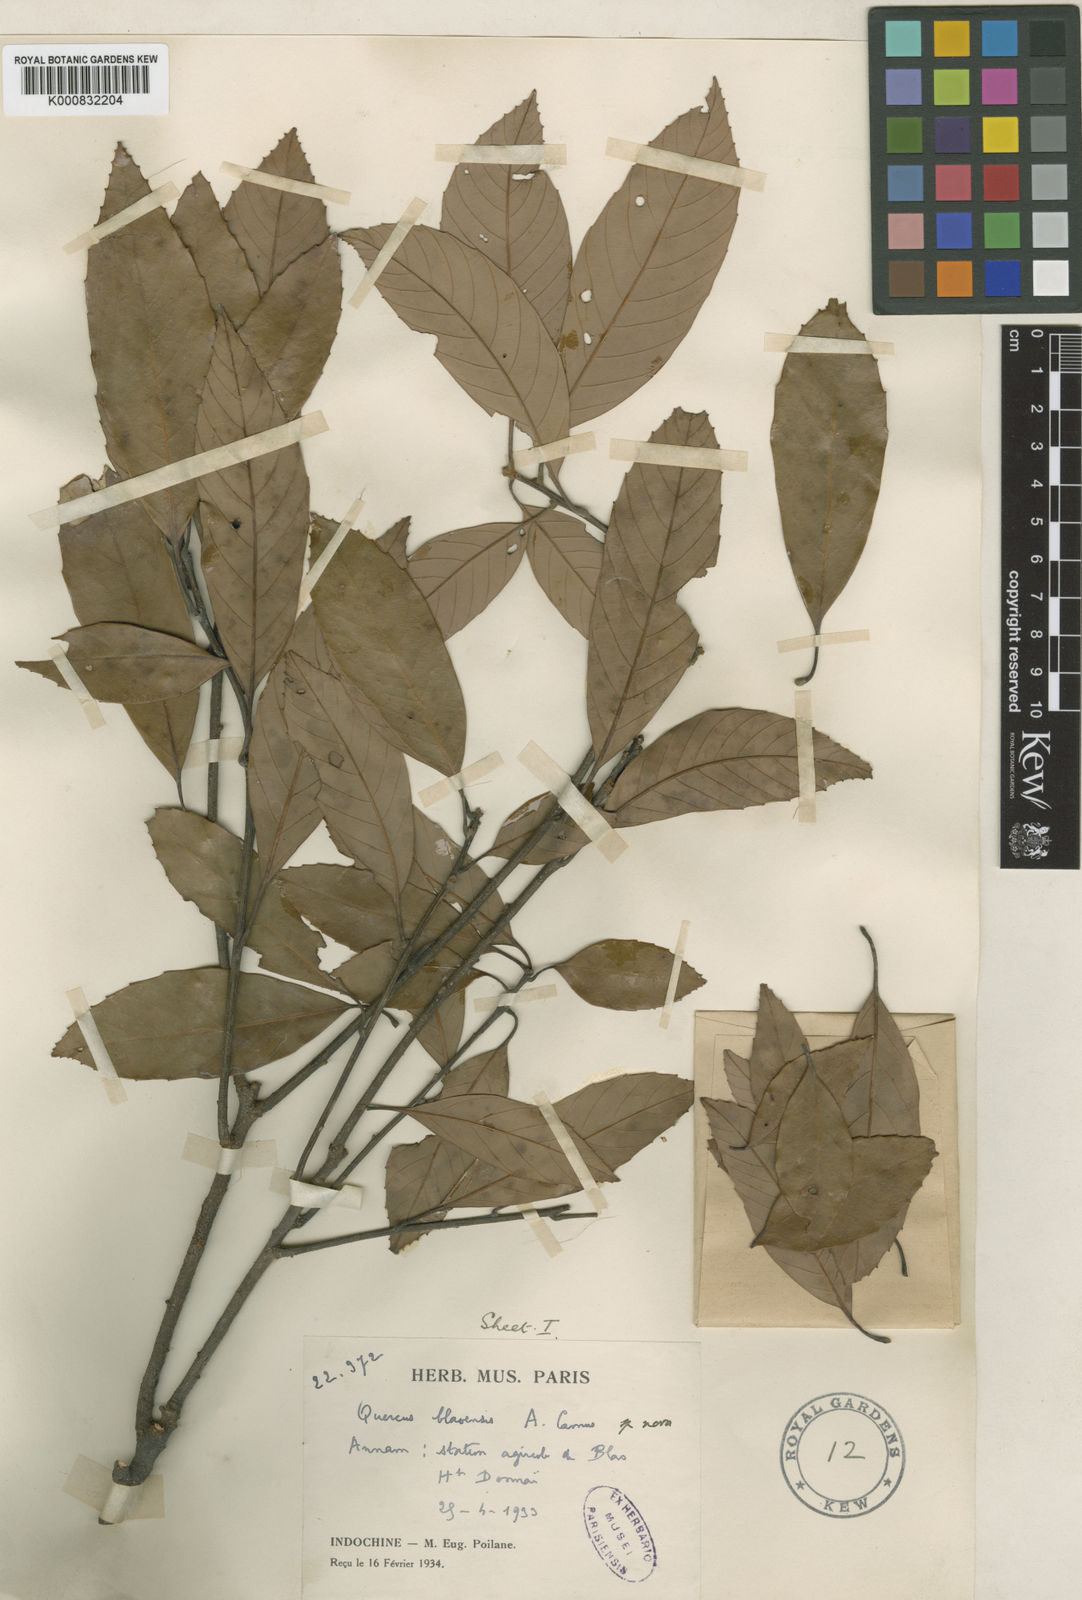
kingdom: Plantae
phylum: Tracheophyta
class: Magnoliopsida
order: Fagales
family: Fagaceae
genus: Quercus
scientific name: Quercus langbianensis
